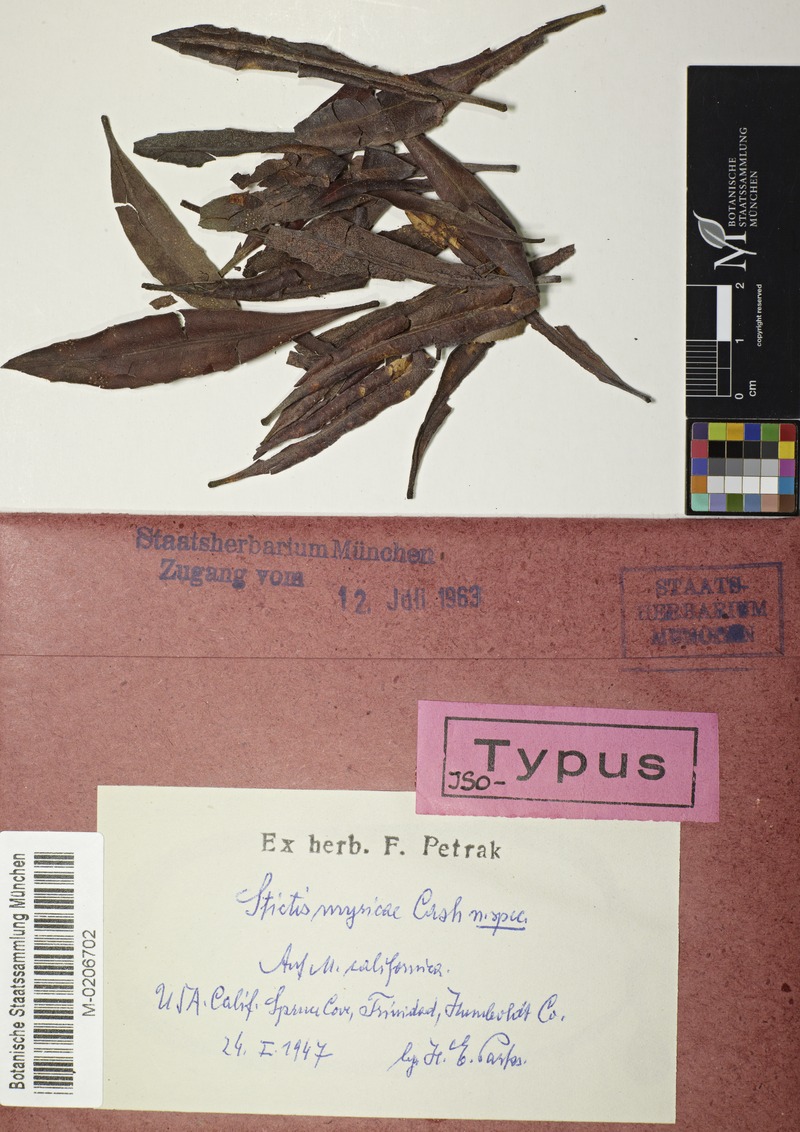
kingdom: Fungi
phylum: Ascomycota
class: Leotiomycetes
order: Chaetomellales
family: Marthamycetaceae
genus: Marthamyces
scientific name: Marthamyces phacidioides
